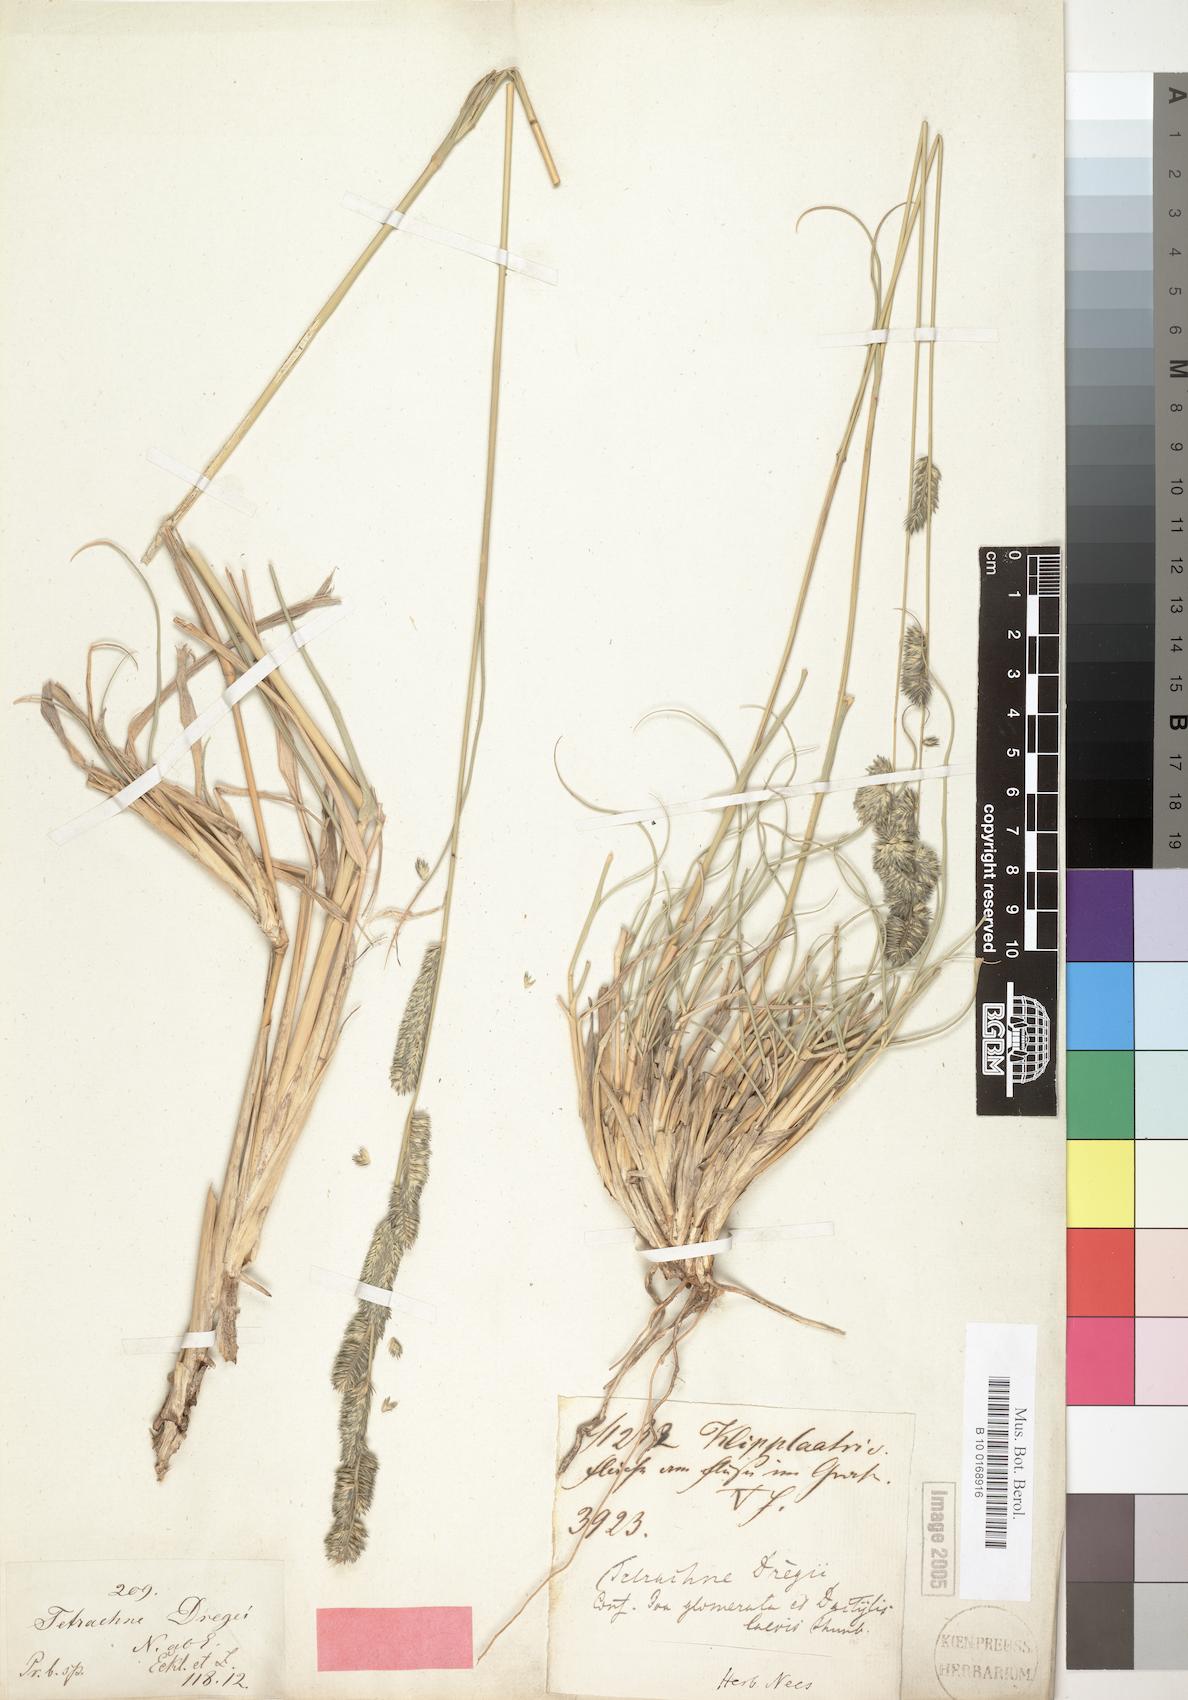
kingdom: Plantae
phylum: Tracheophyta
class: Liliopsida
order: Poales
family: Poaceae
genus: Tetrachne
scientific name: Tetrachne dregei
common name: Robies cocksfoot
